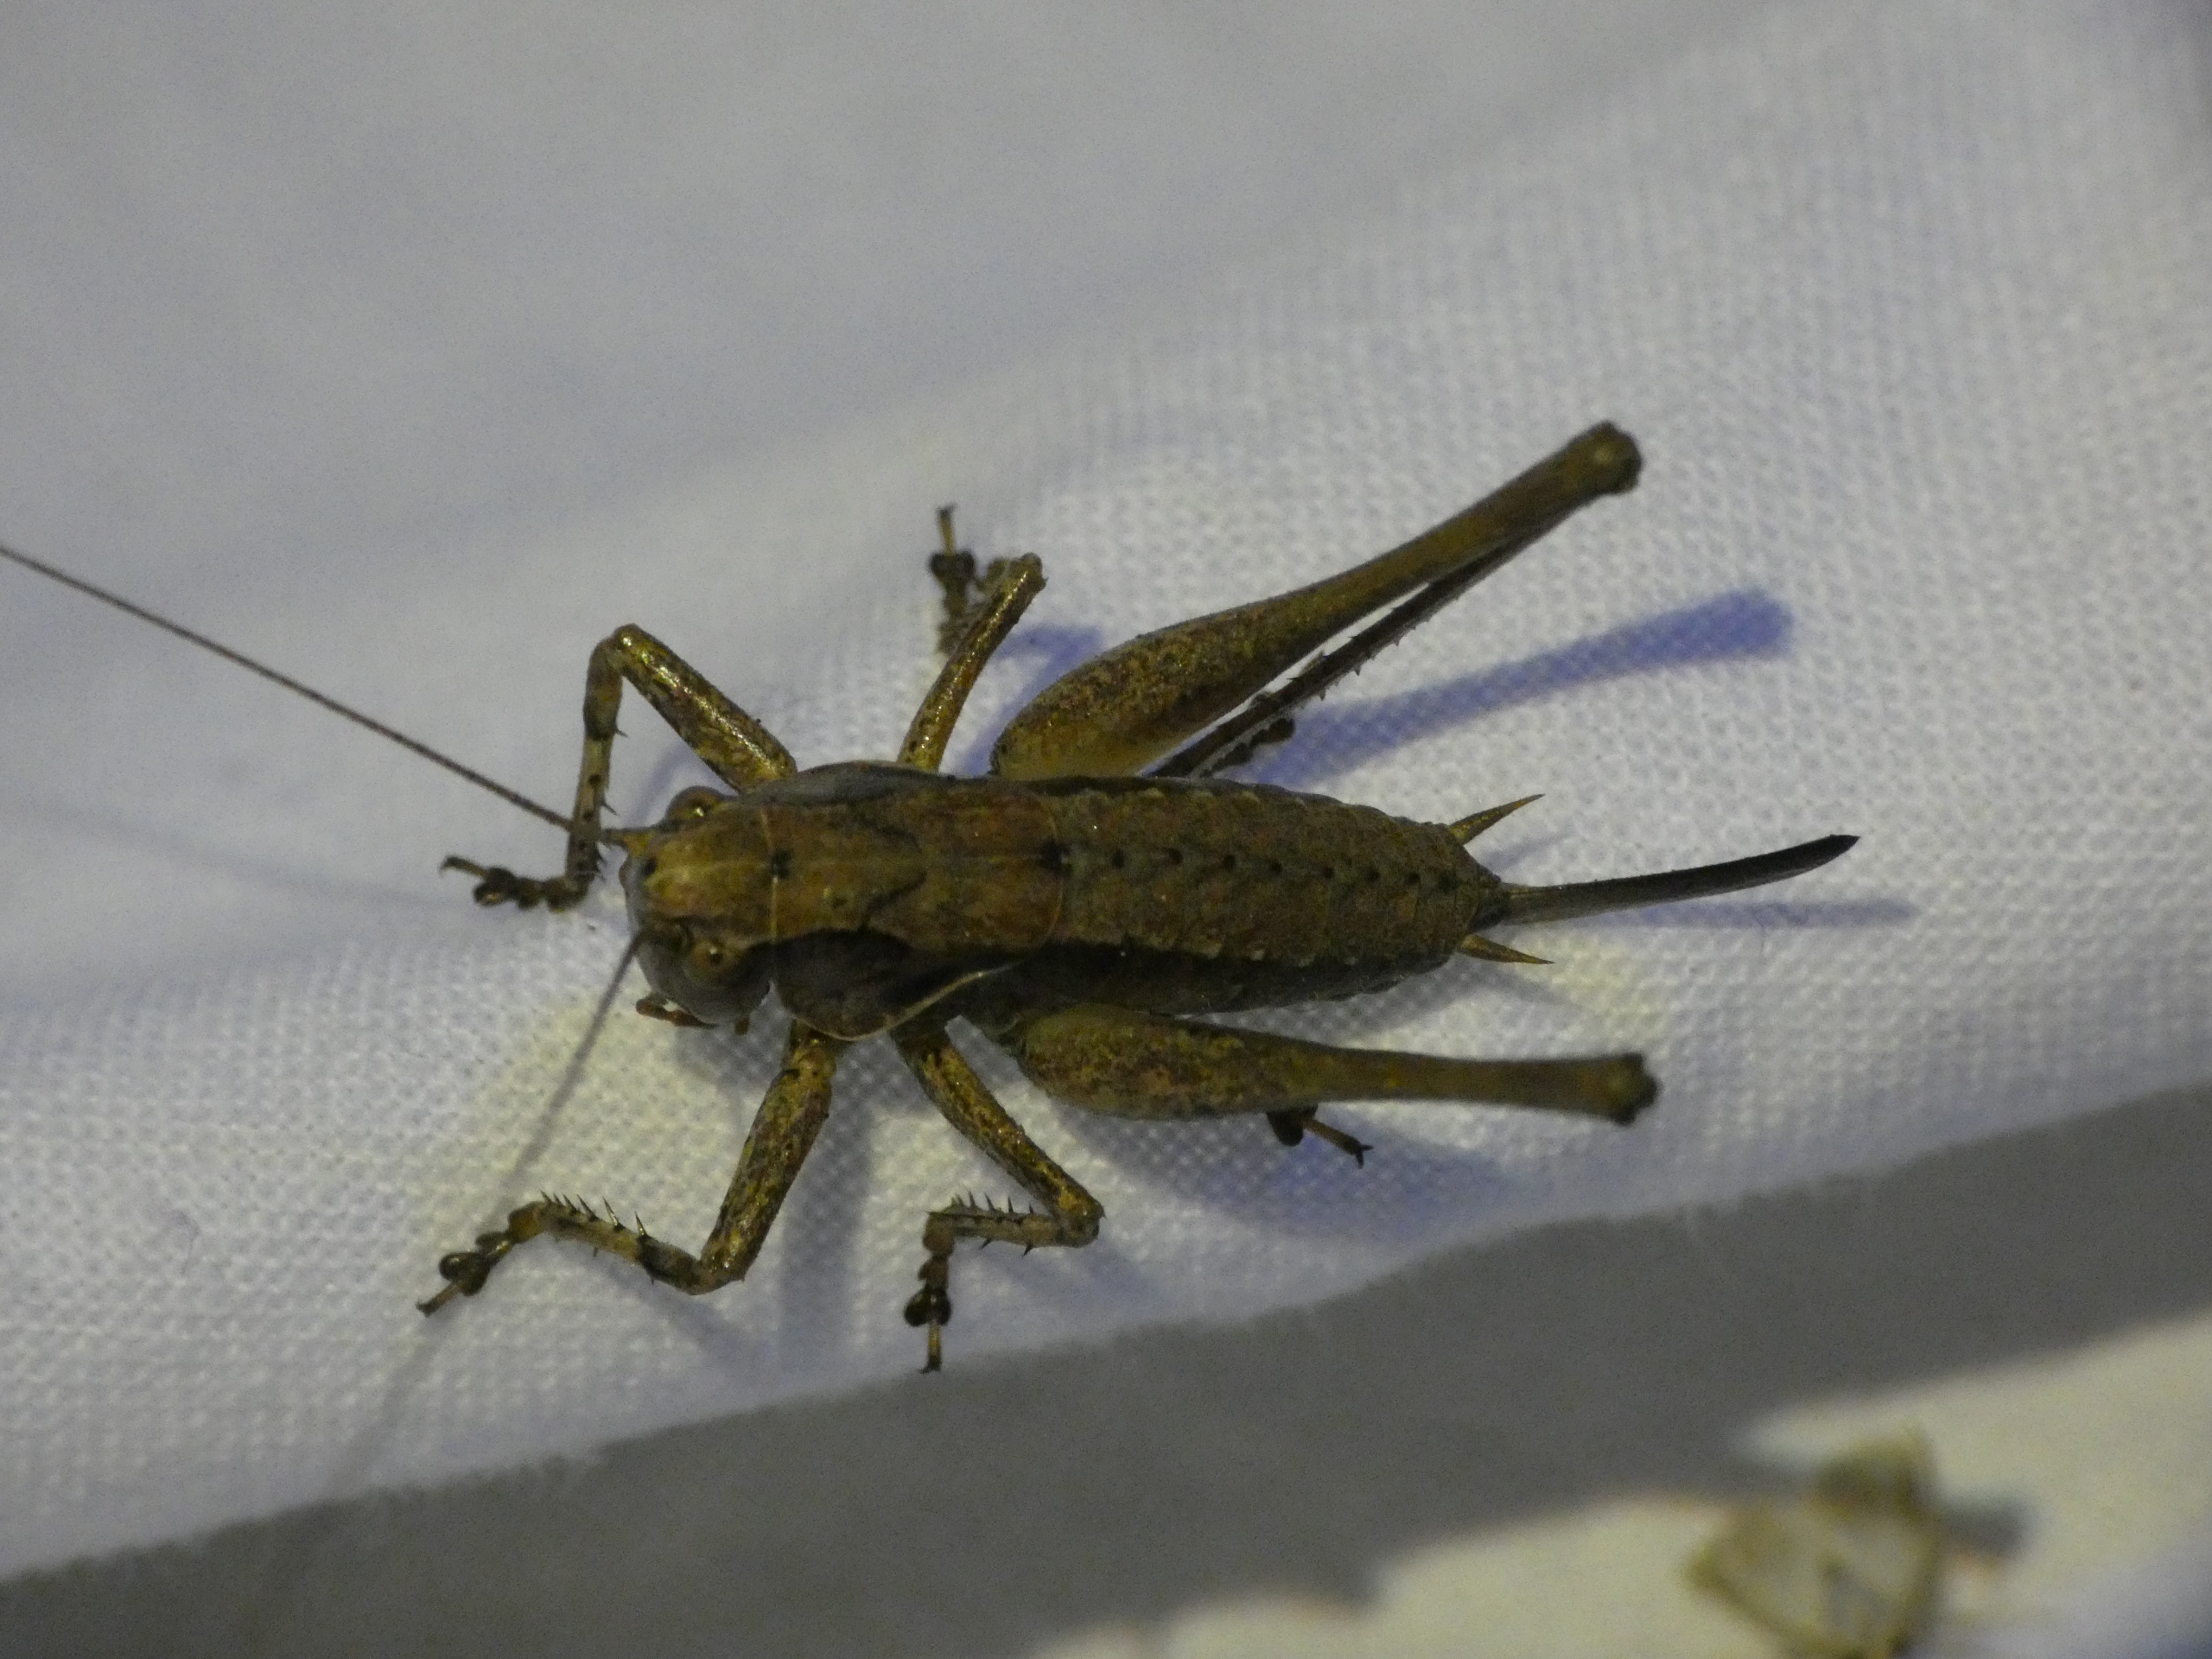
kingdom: Animalia
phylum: Arthropoda
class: Insecta
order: Orthoptera
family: Tettigoniidae
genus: Pholidoptera
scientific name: Pholidoptera griseoaptera
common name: Buskgræshoppe
